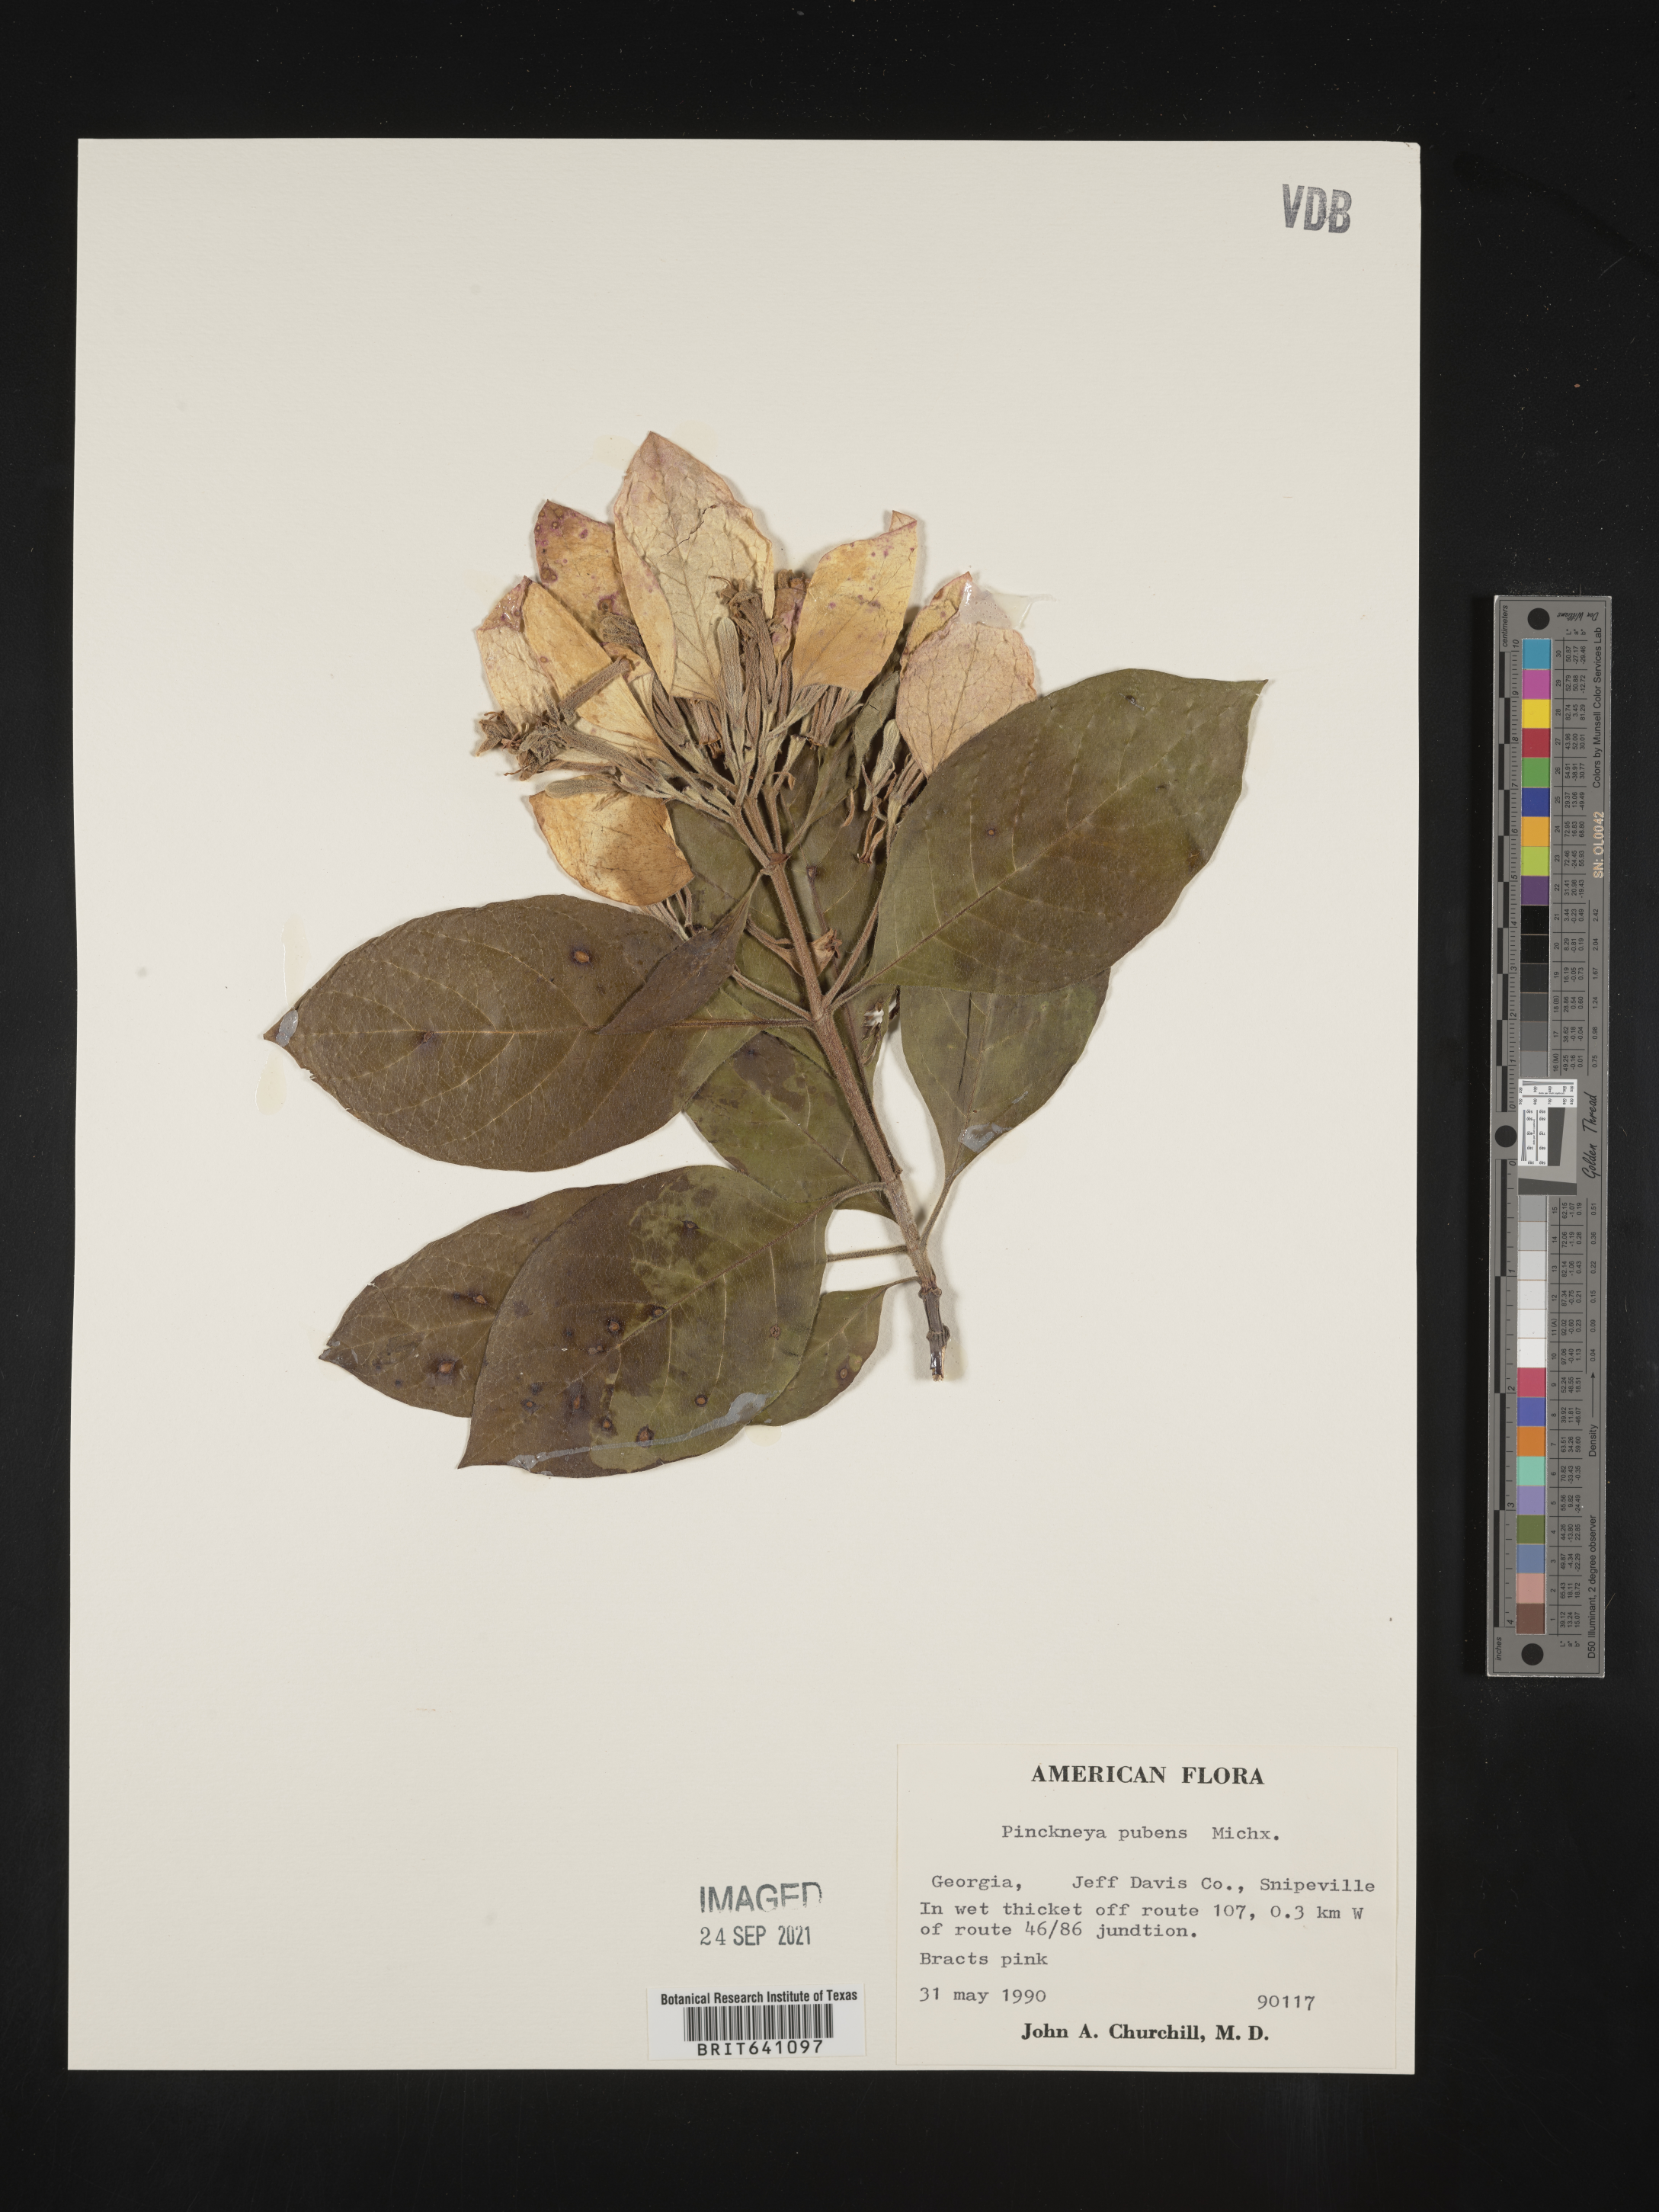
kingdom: Plantae
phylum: Tracheophyta
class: Magnoliopsida
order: Gentianales
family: Rubiaceae
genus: Pinckneya
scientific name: Pinckneya pubens
